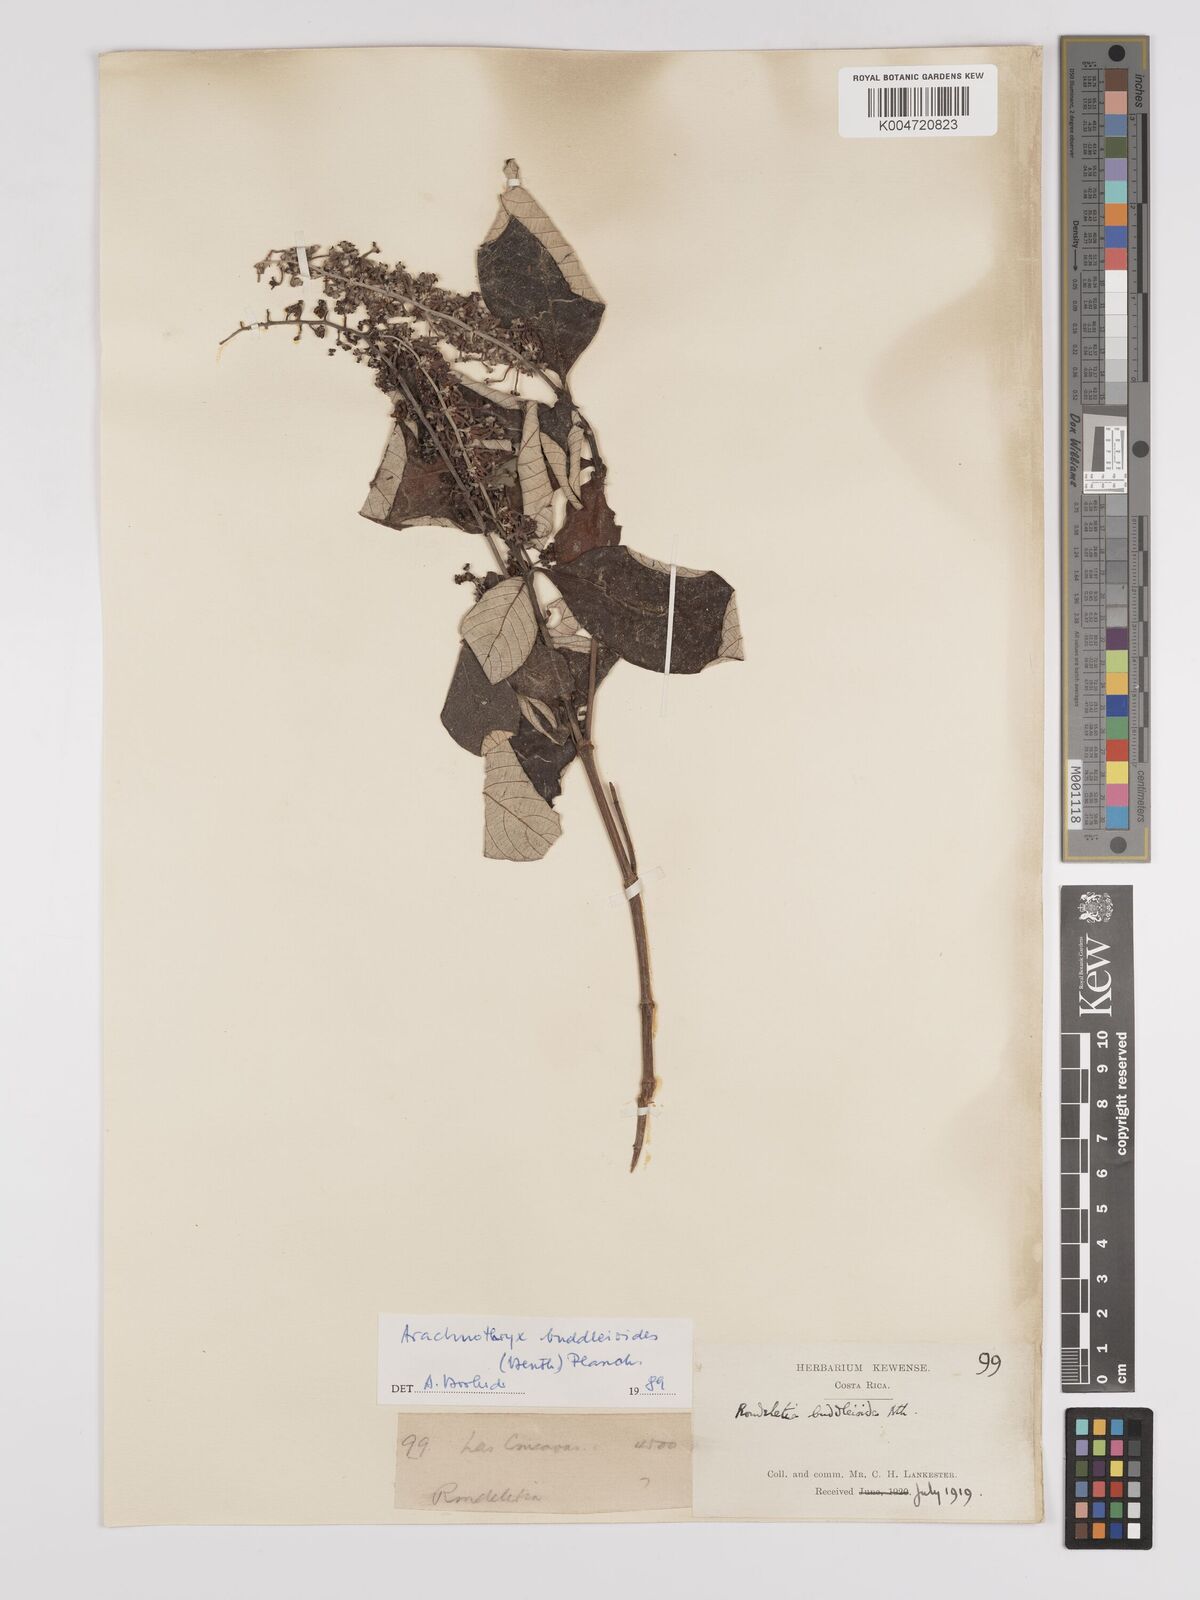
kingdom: Plantae
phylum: Tracheophyta
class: Magnoliopsida
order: Gentianales
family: Rubiaceae
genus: Arachnothryx
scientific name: Arachnothryx buddleioides
